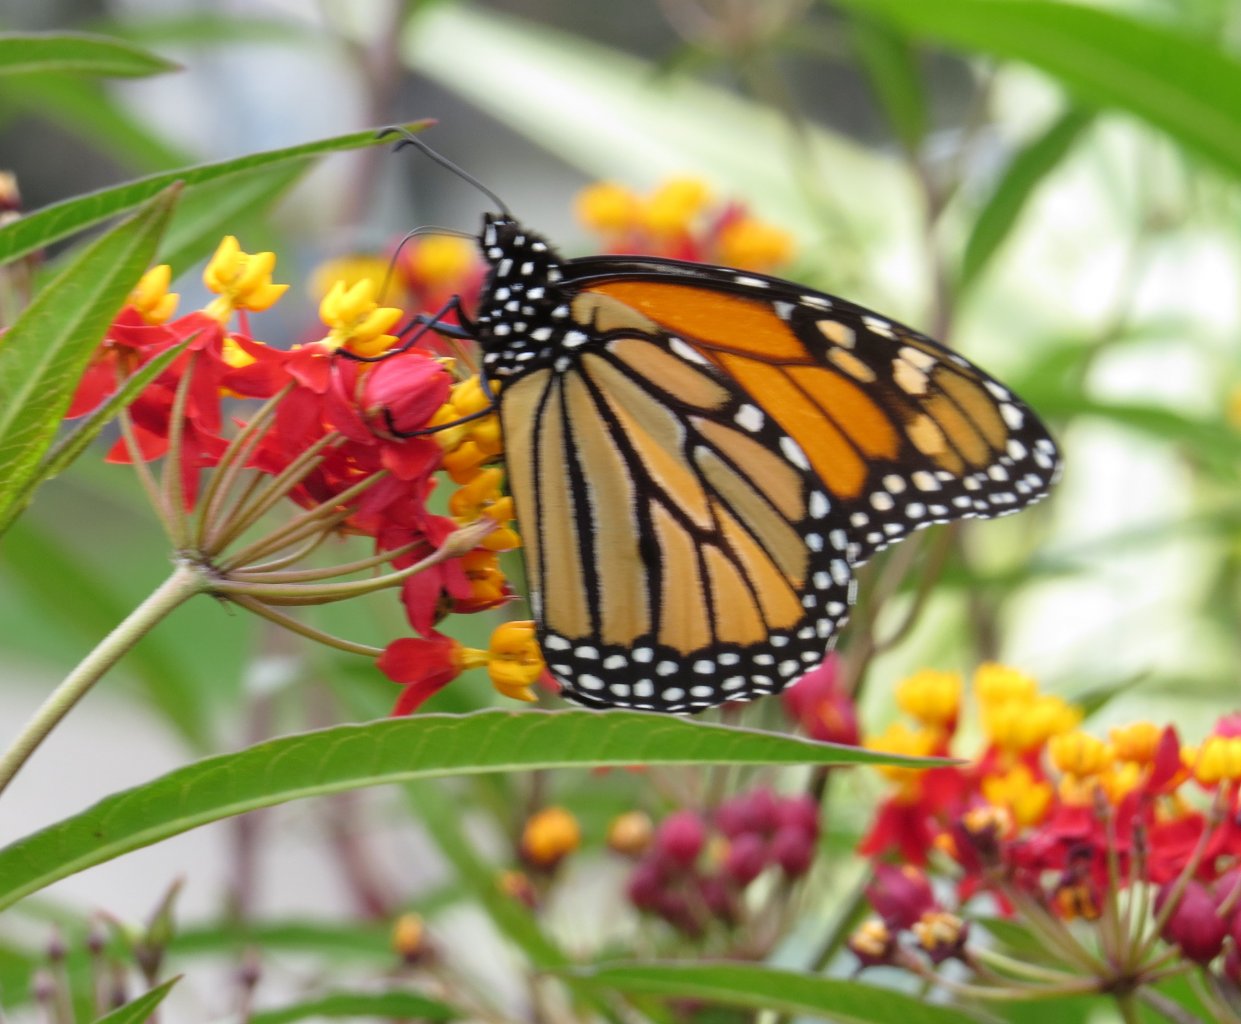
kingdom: Animalia
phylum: Arthropoda
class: Insecta
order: Lepidoptera
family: Nymphalidae
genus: Danaus
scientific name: Danaus plexippus
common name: Monarch
